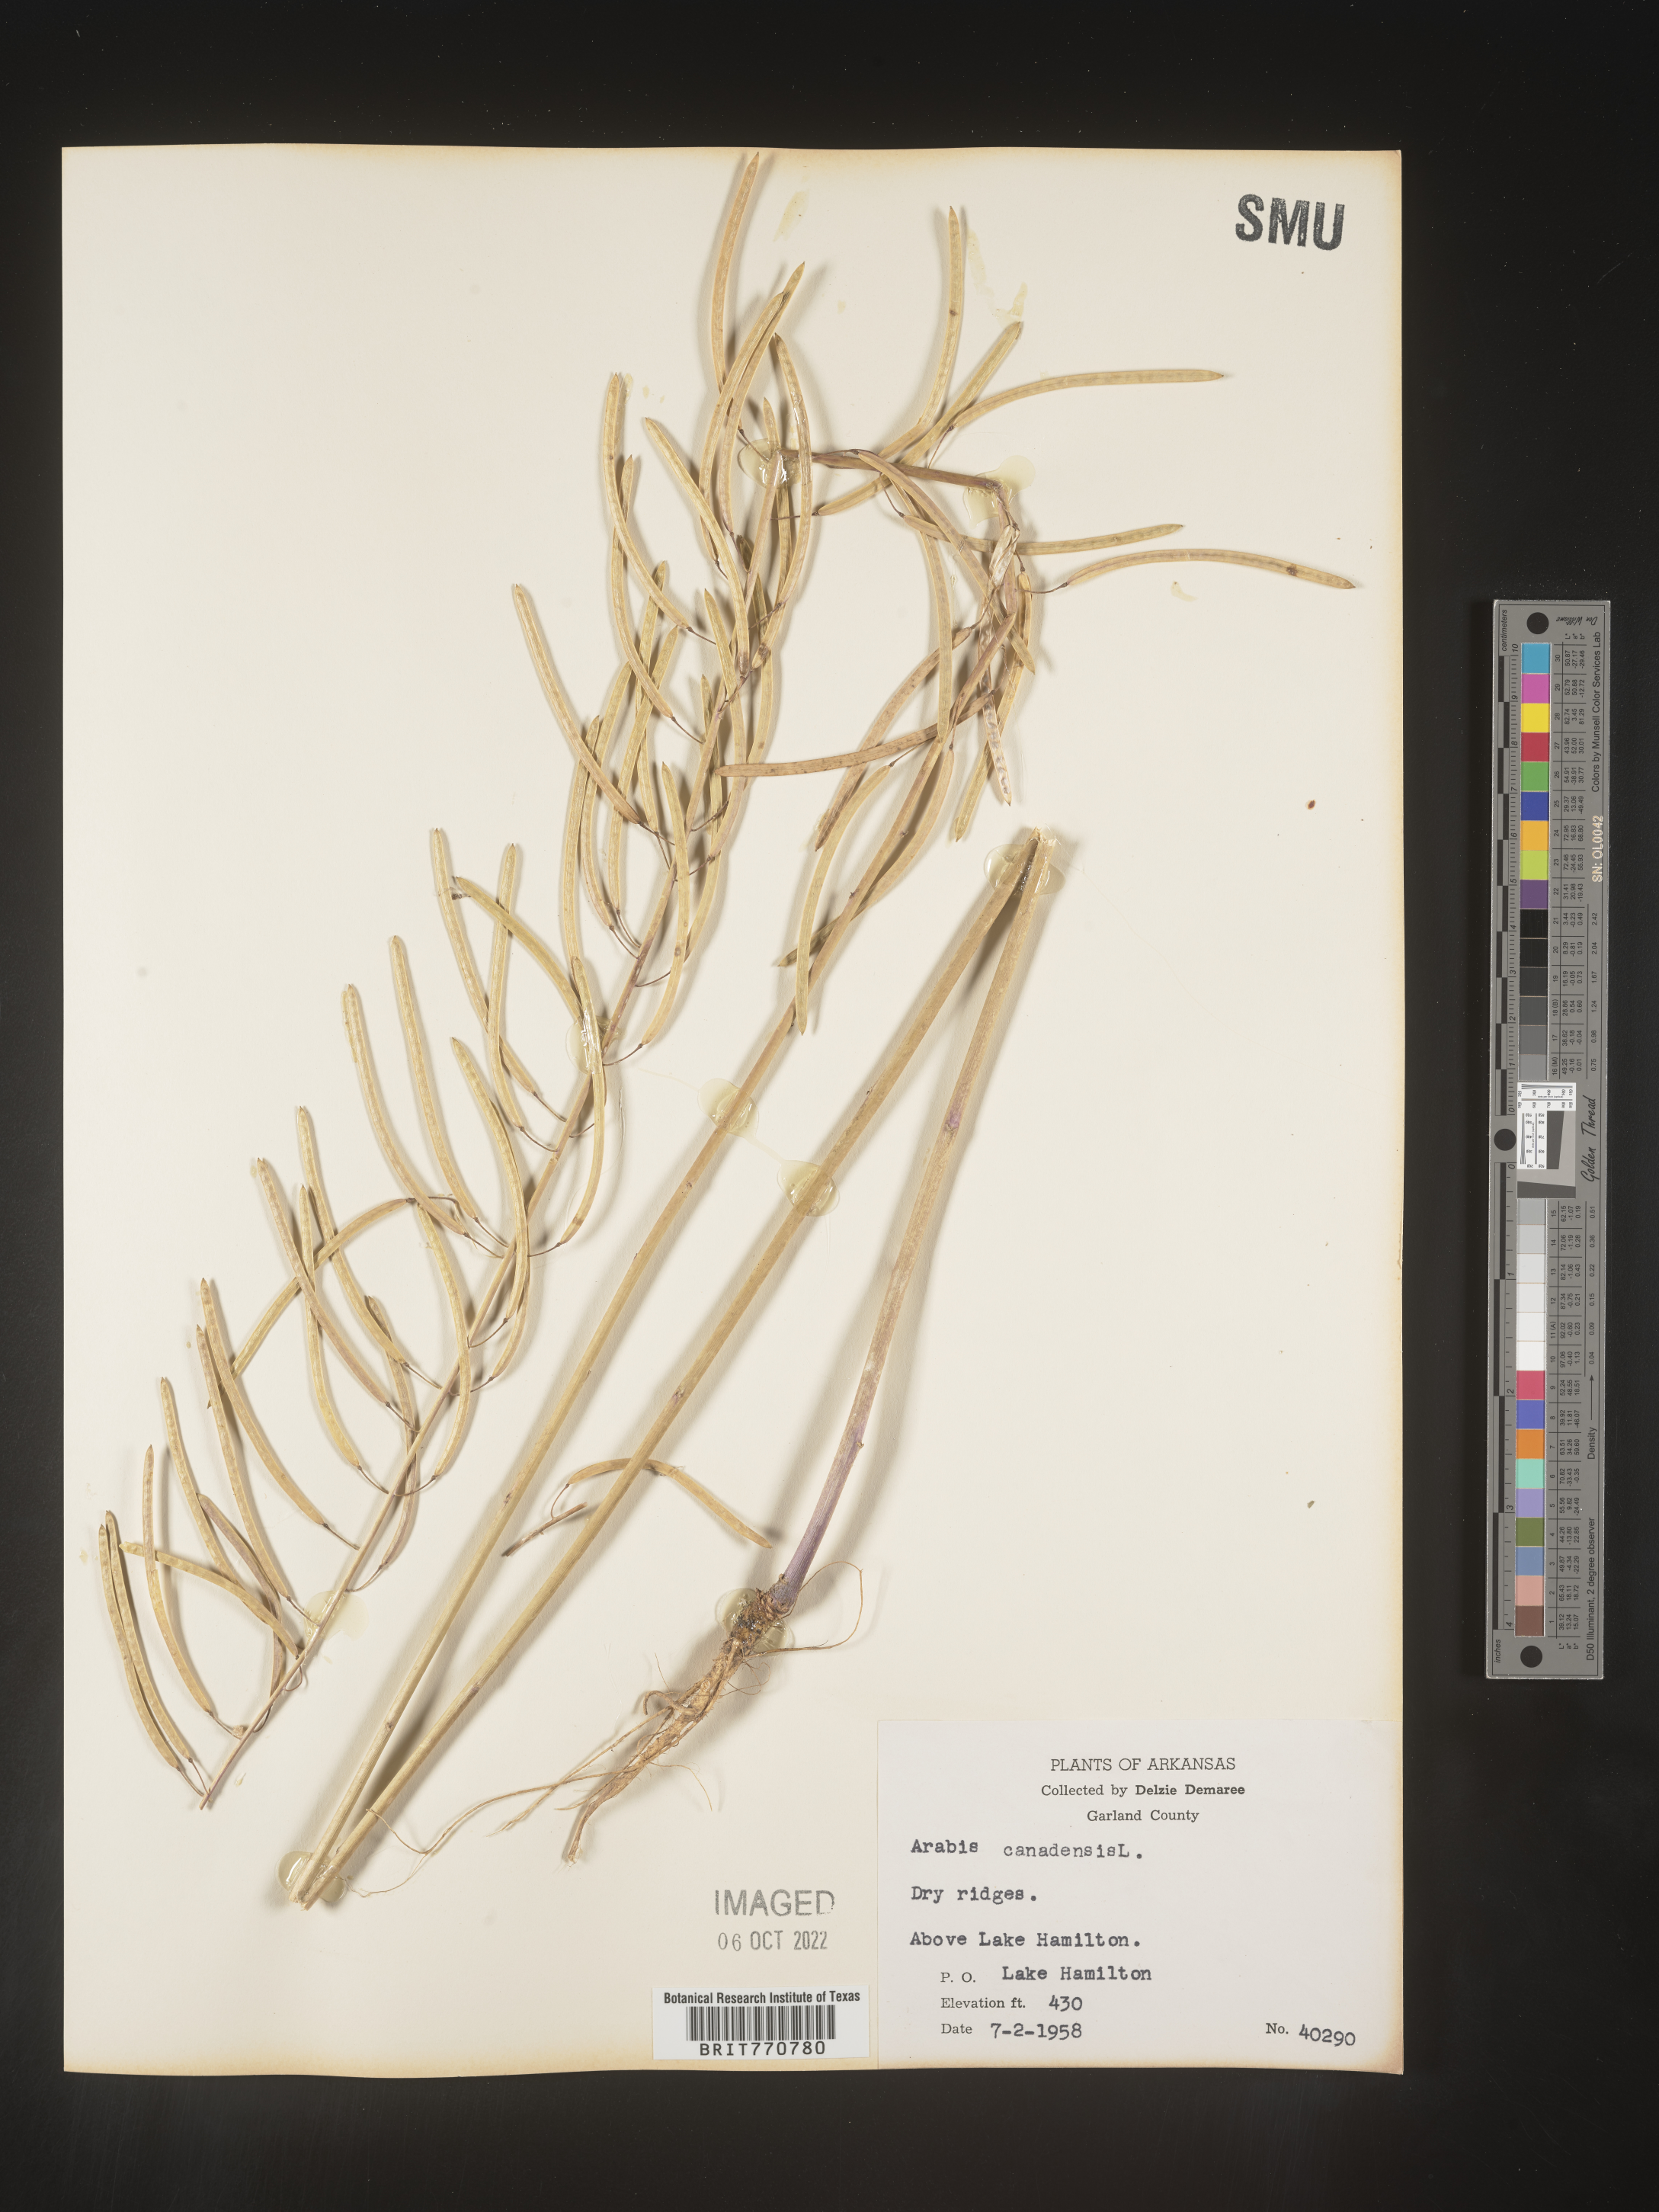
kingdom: Plantae
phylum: Tracheophyta
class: Magnoliopsida
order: Brassicales
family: Brassicaceae
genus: Borodinia
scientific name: Borodinia canadensis
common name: Sicklepod
